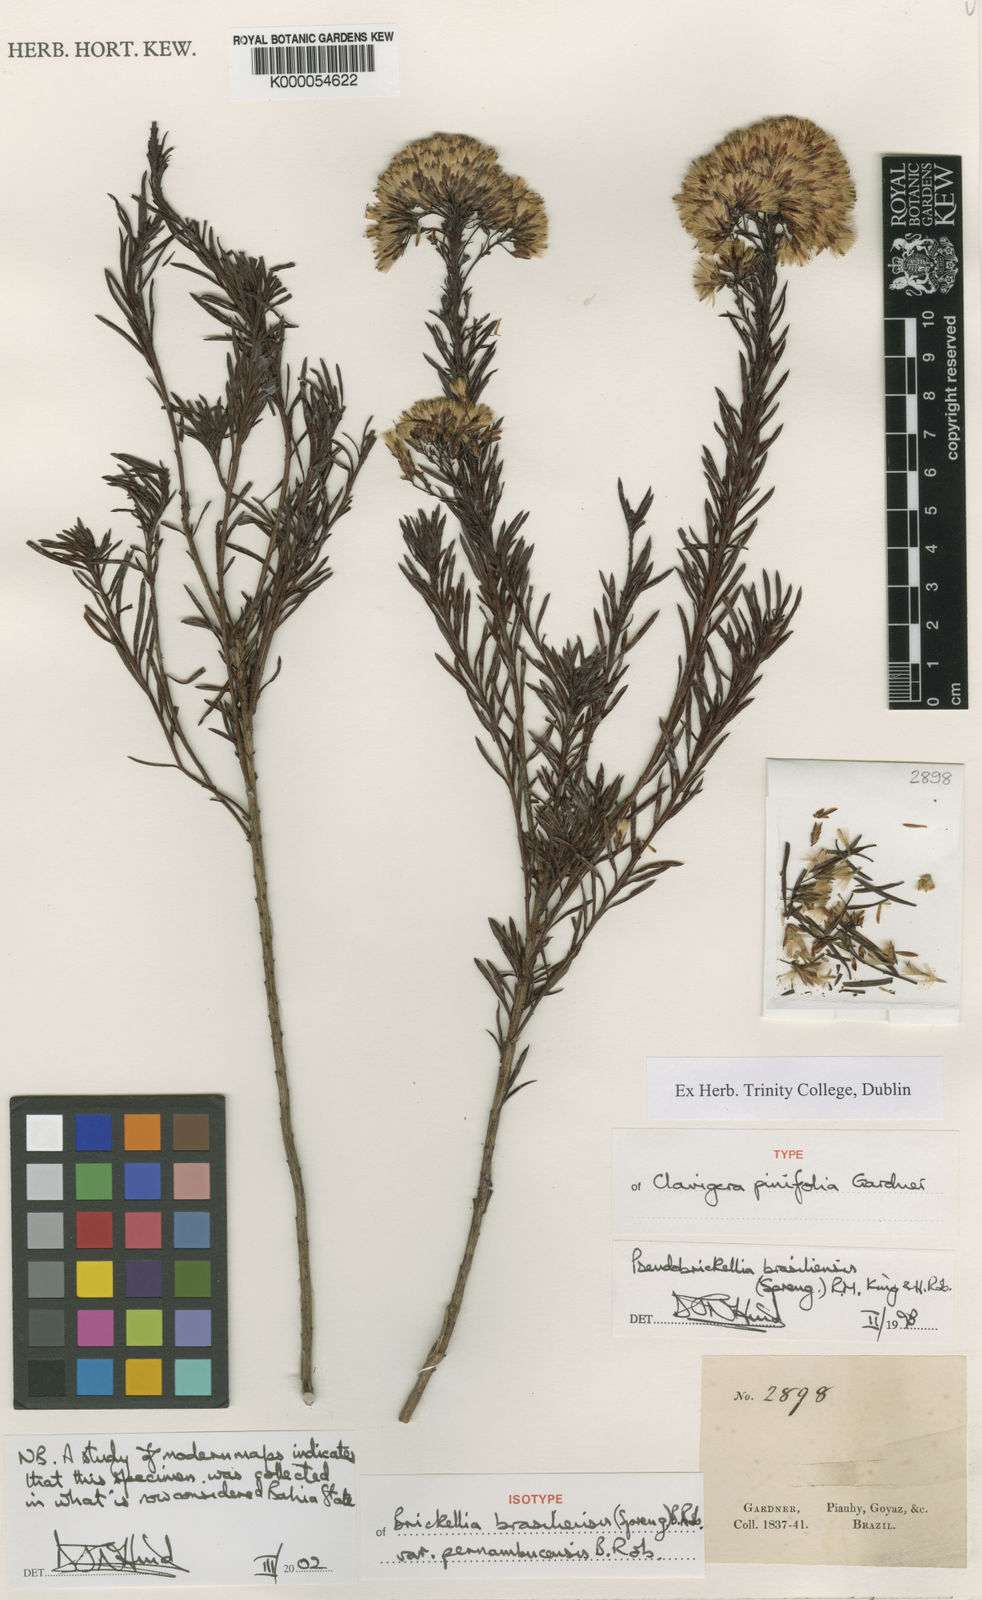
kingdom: Plantae
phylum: Tracheophyta
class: Magnoliopsida
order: Asterales
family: Asteraceae
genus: Pseudobrickellia
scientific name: Pseudobrickellia brasiliensis
